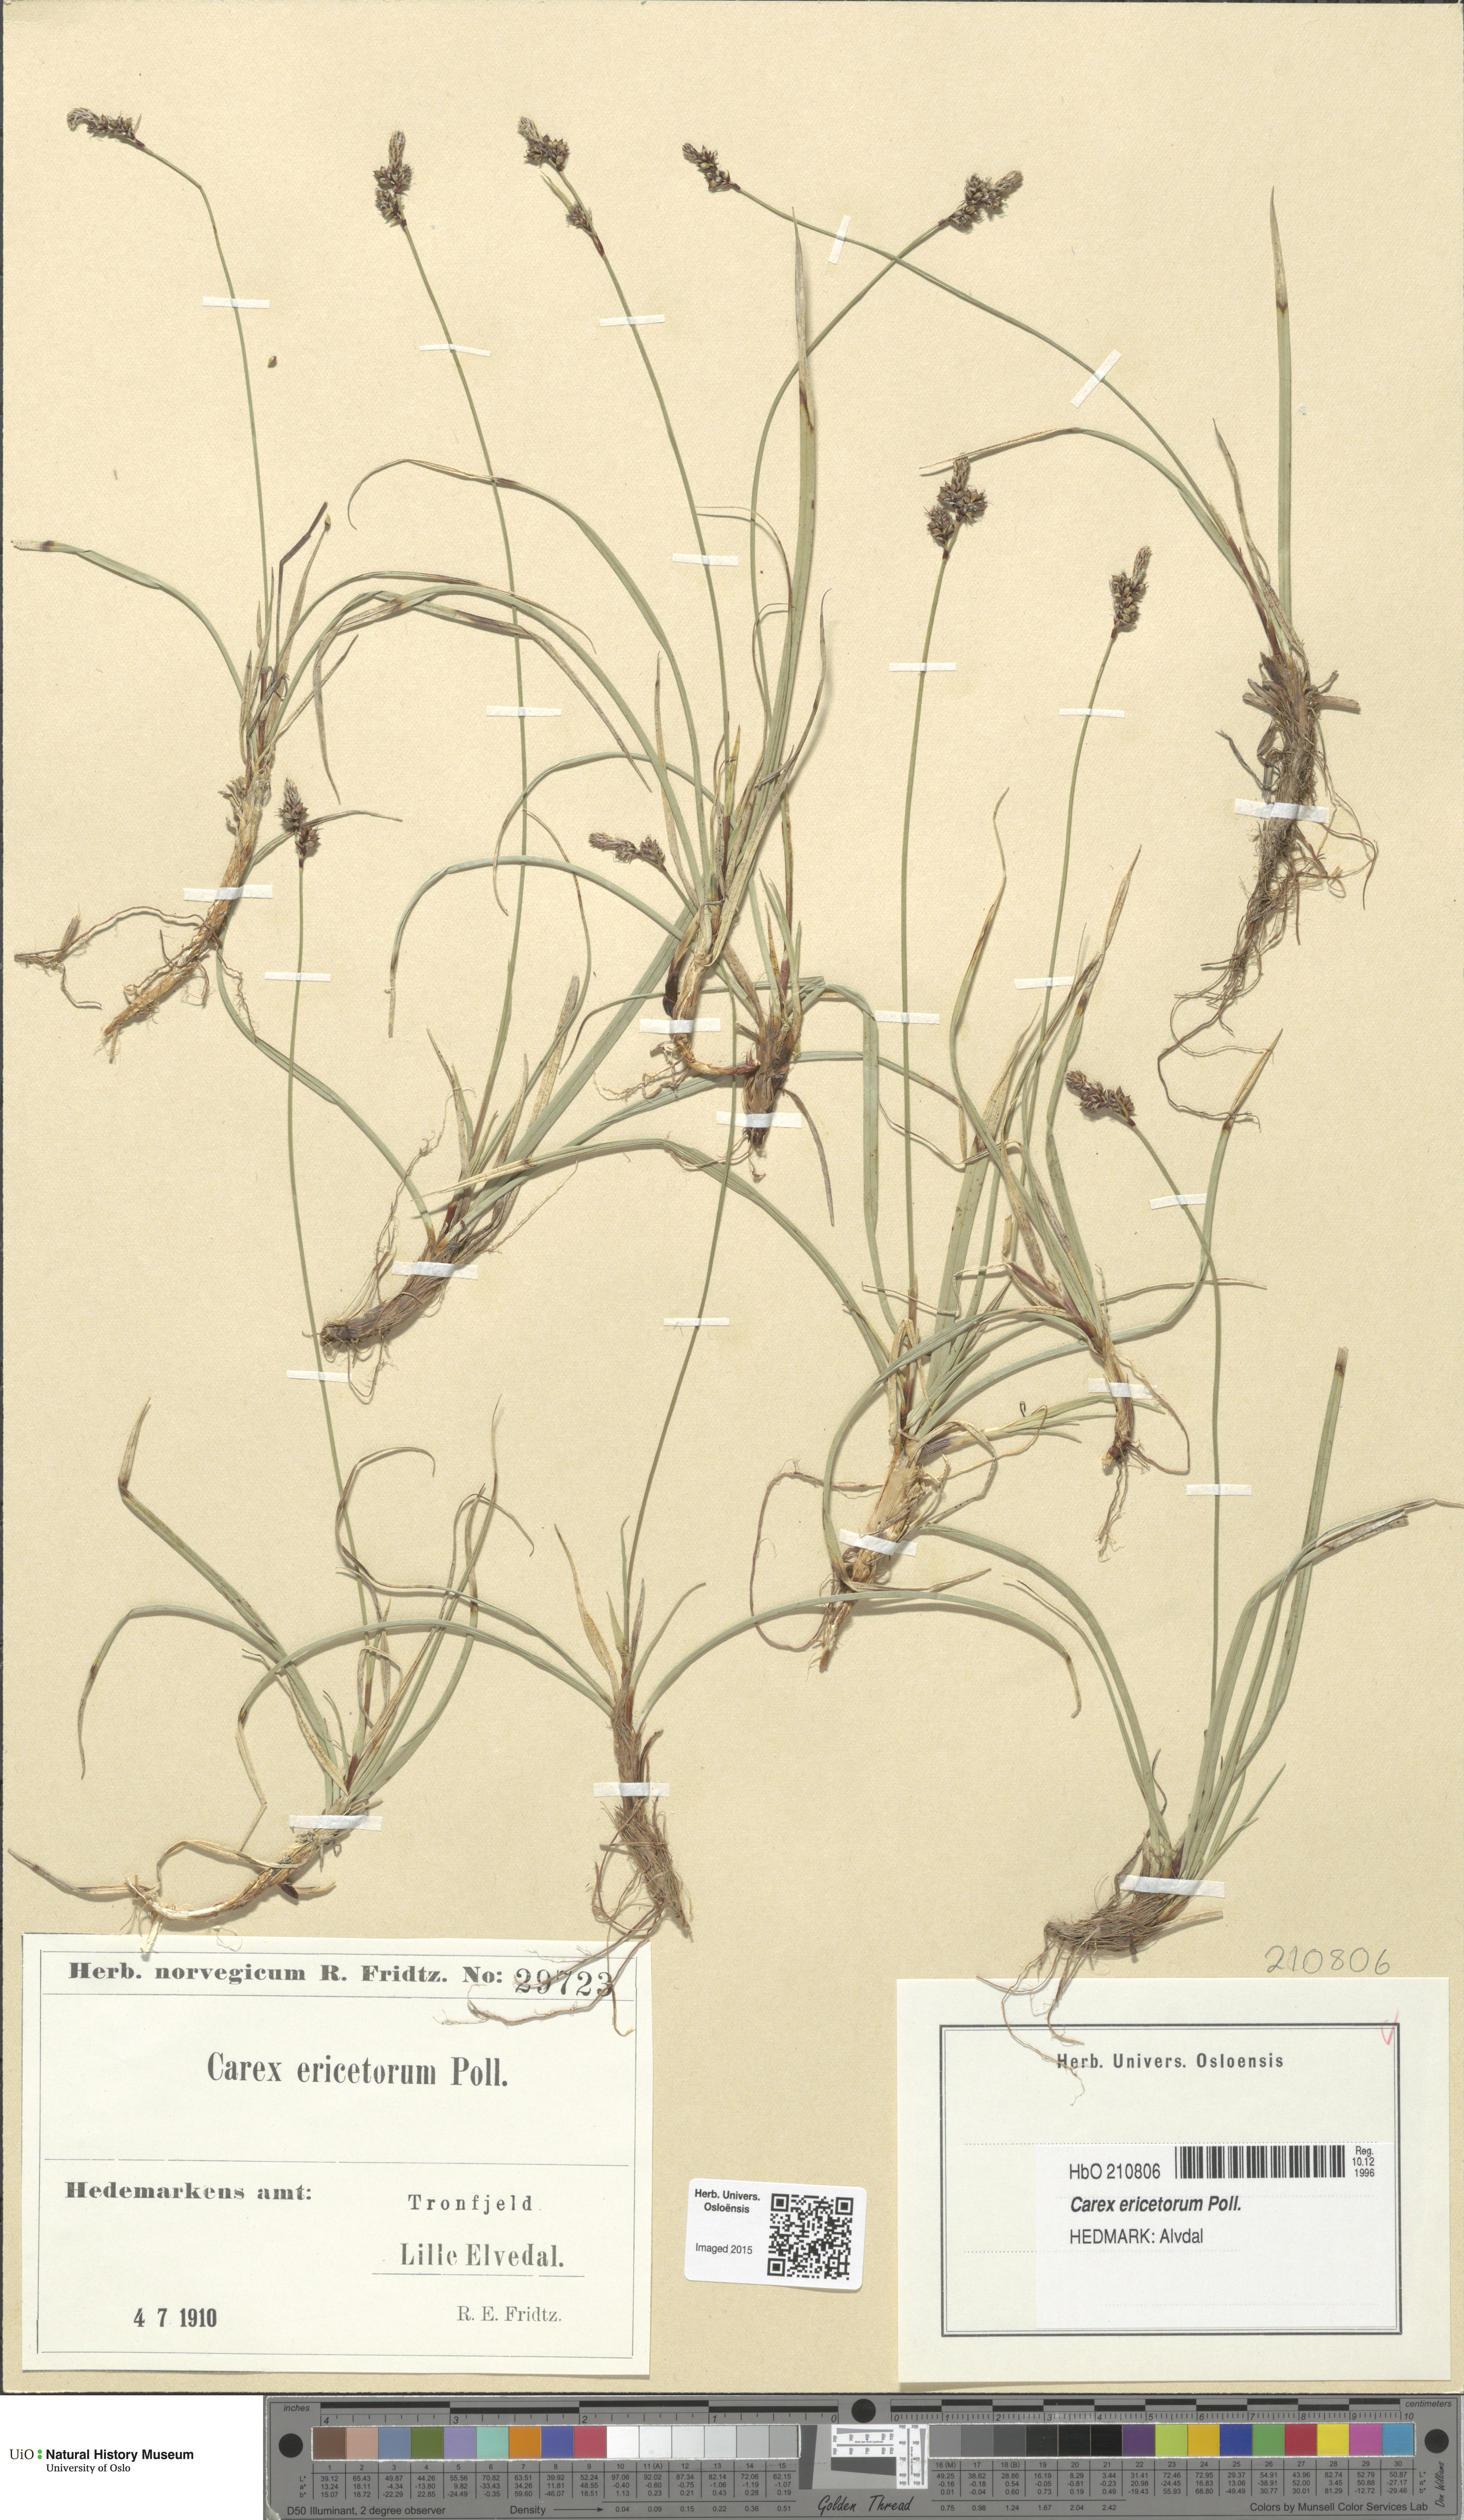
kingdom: Plantae
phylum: Tracheophyta
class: Liliopsida
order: Poales
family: Cyperaceae
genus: Carex
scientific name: Carex ericetorum
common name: Rare spring-sedge
